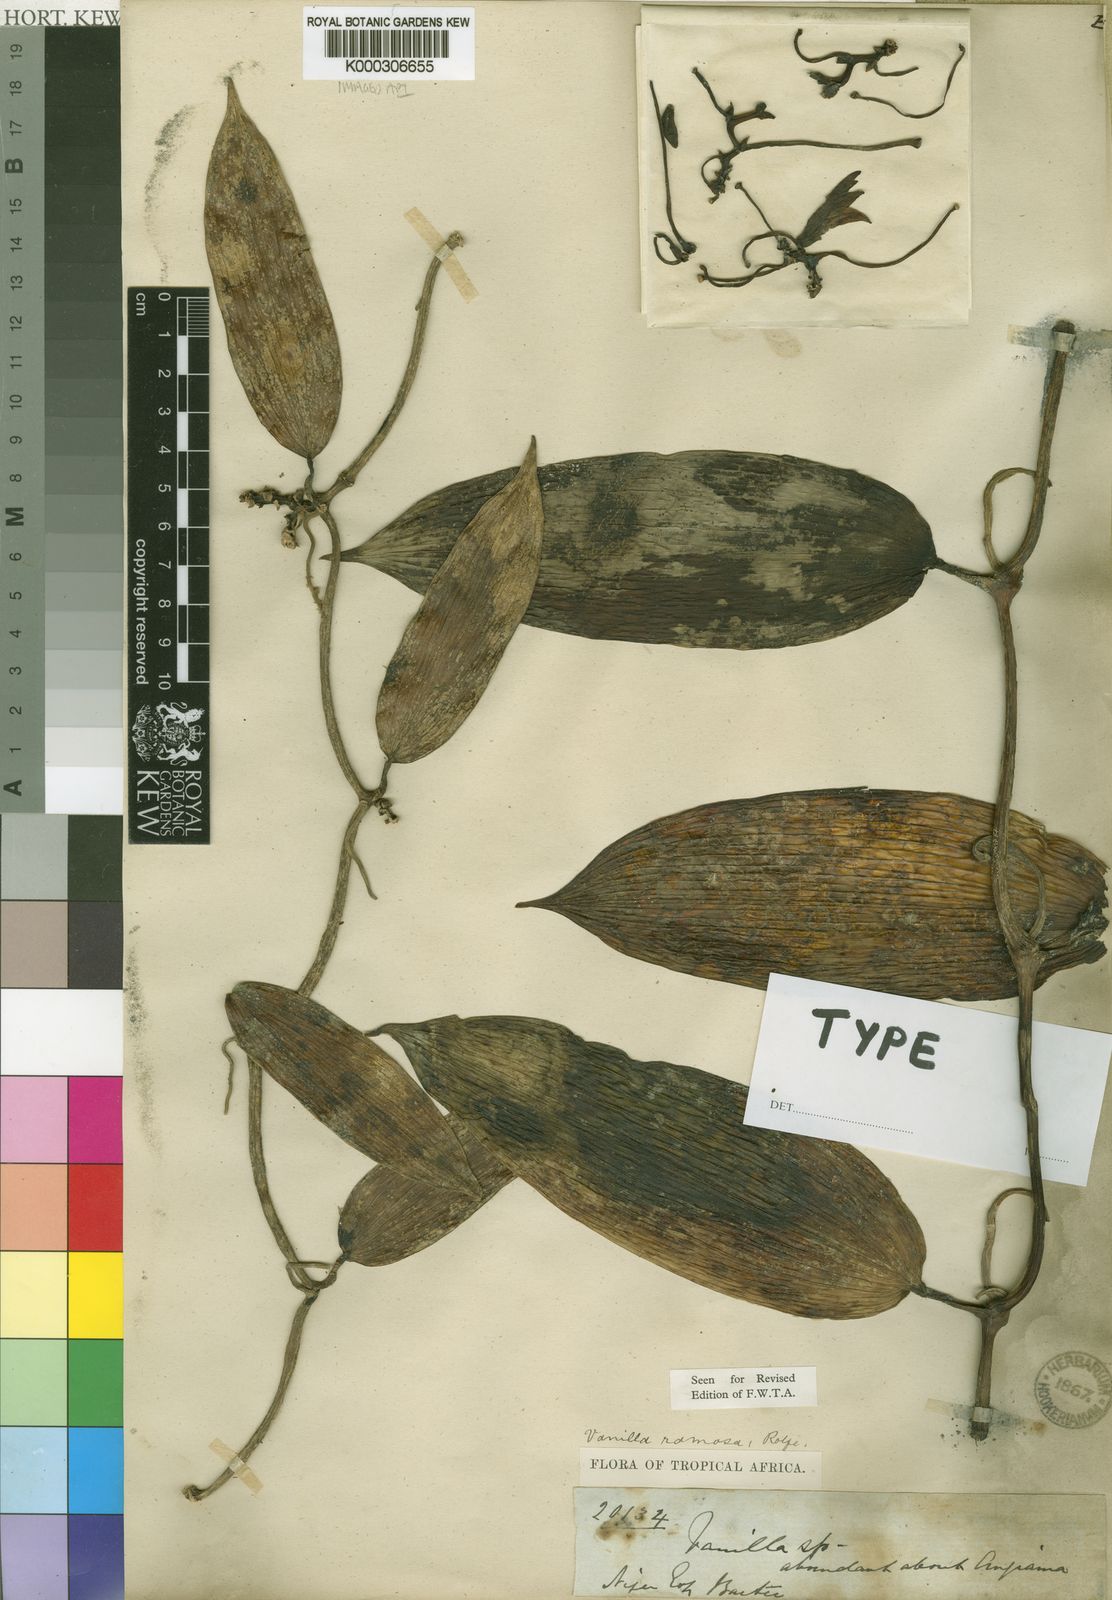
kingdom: Plantae
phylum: Tracheophyta
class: Liliopsida
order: Asparagales
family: Orchidaceae
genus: Vanilla
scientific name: Vanilla ramosa
